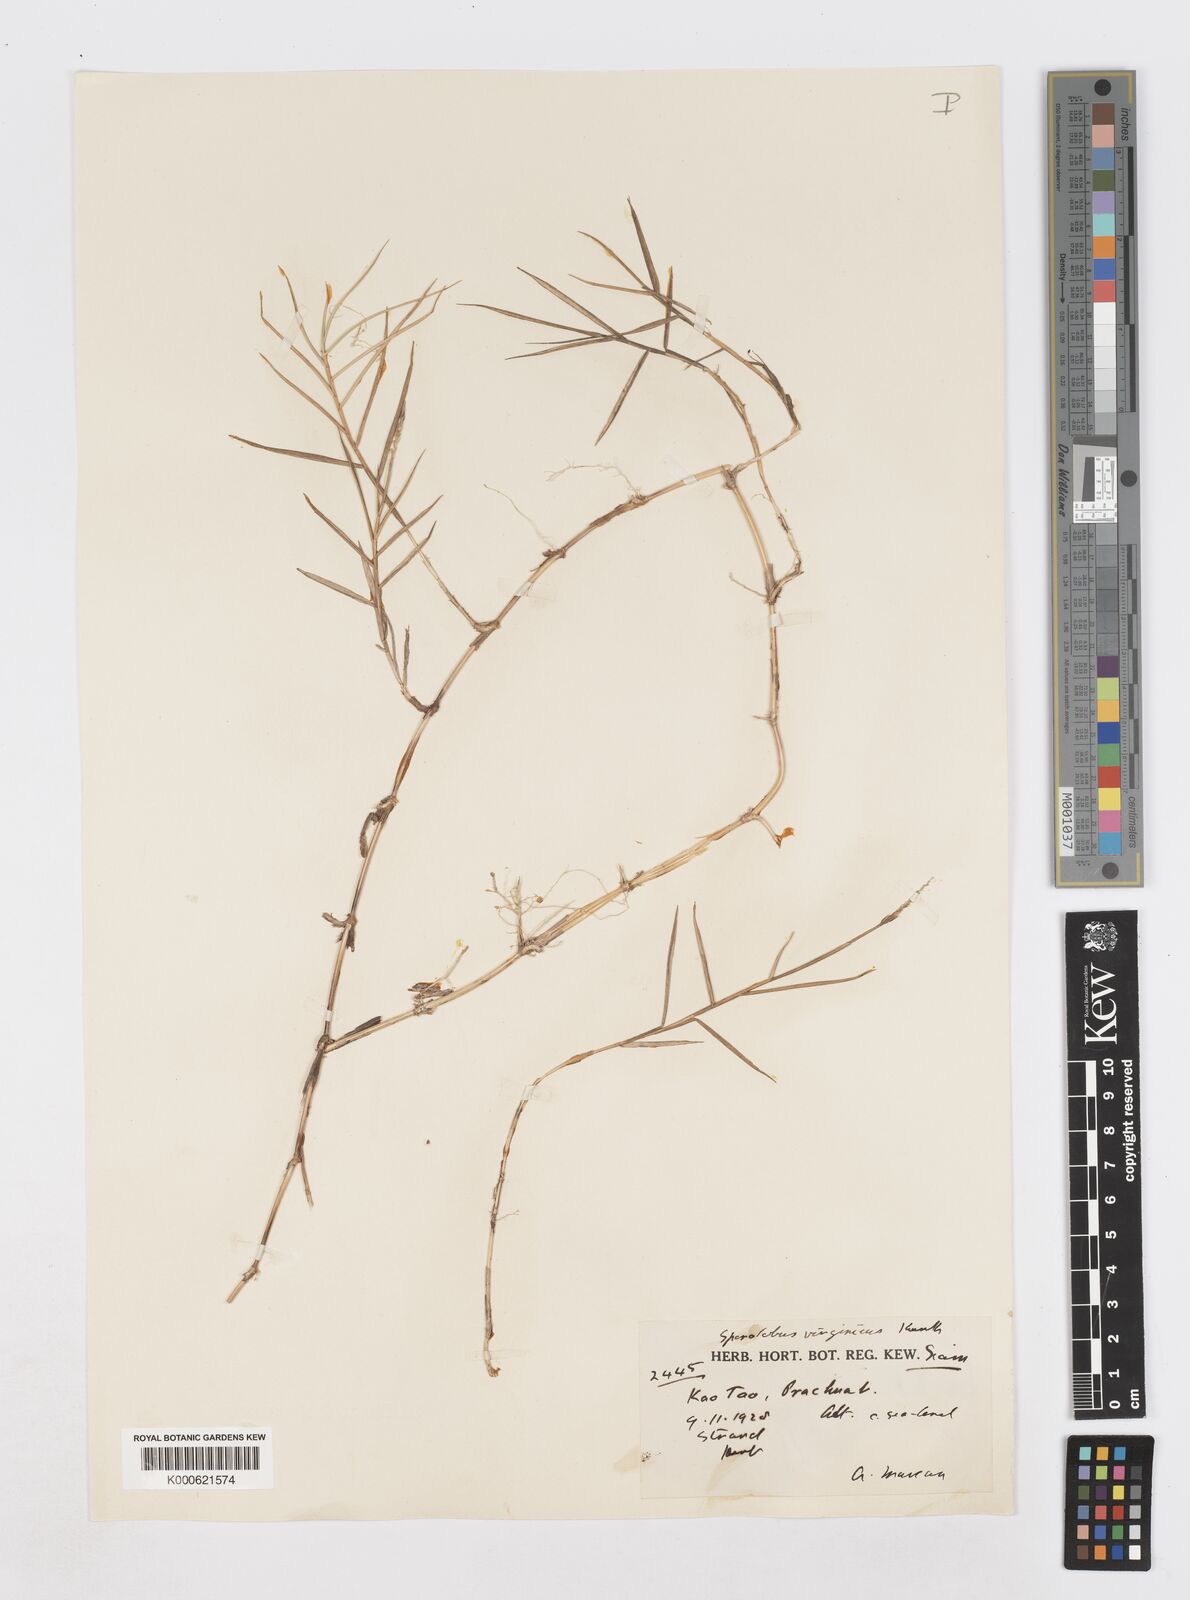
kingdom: Plantae
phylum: Tracheophyta
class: Liliopsida
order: Poales
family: Poaceae
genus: Sporobolus
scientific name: Sporobolus virginicus
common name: Beach dropseed
